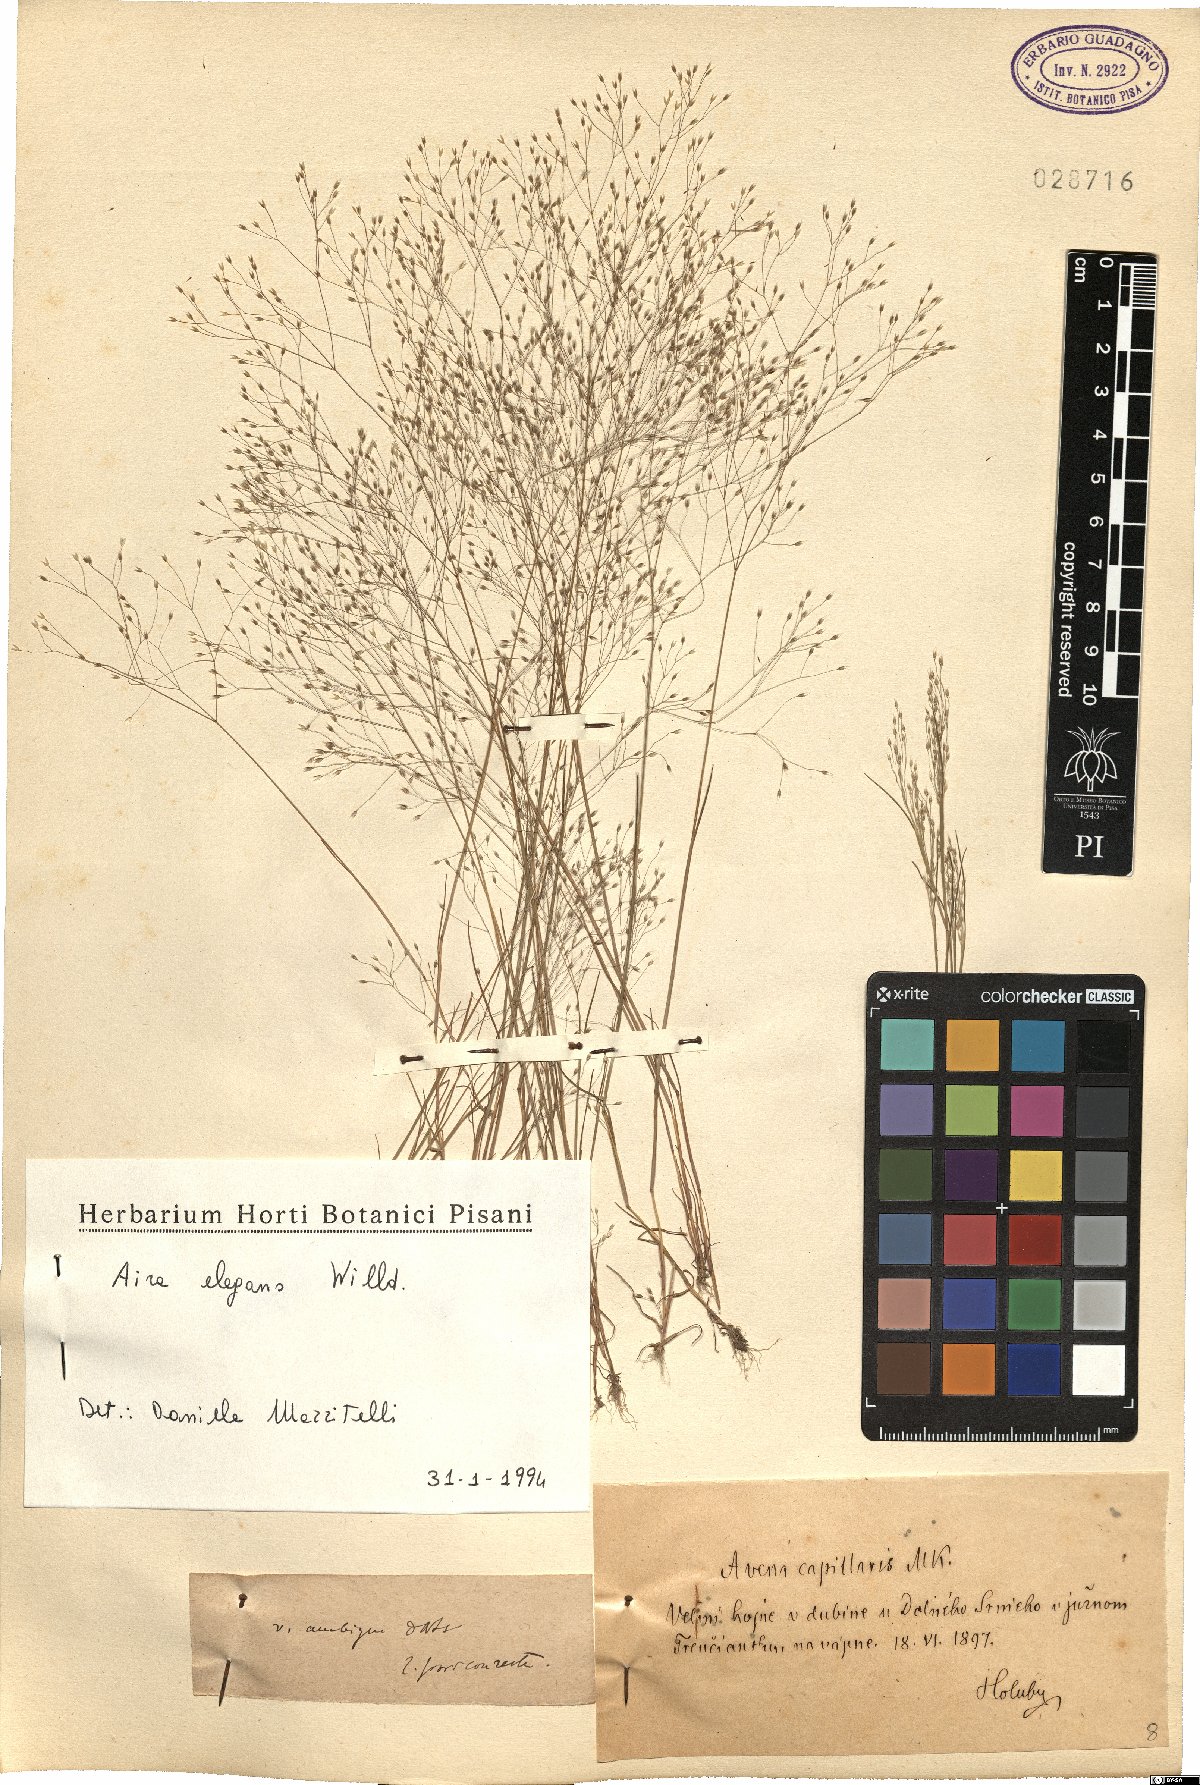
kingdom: Plantae
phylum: Tracheophyta
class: Liliopsida
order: Poales
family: Poaceae
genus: Aira
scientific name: Aira elegans
